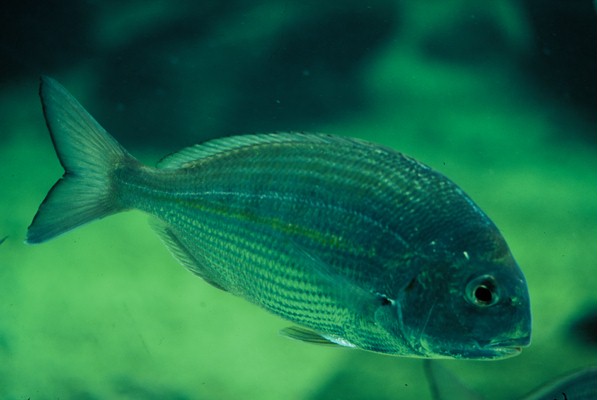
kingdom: Animalia
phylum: Chordata
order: Perciformes
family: Sparidae
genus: Rhabdosargus
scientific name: Rhabdosargus holubi
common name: Cape stumpnose
